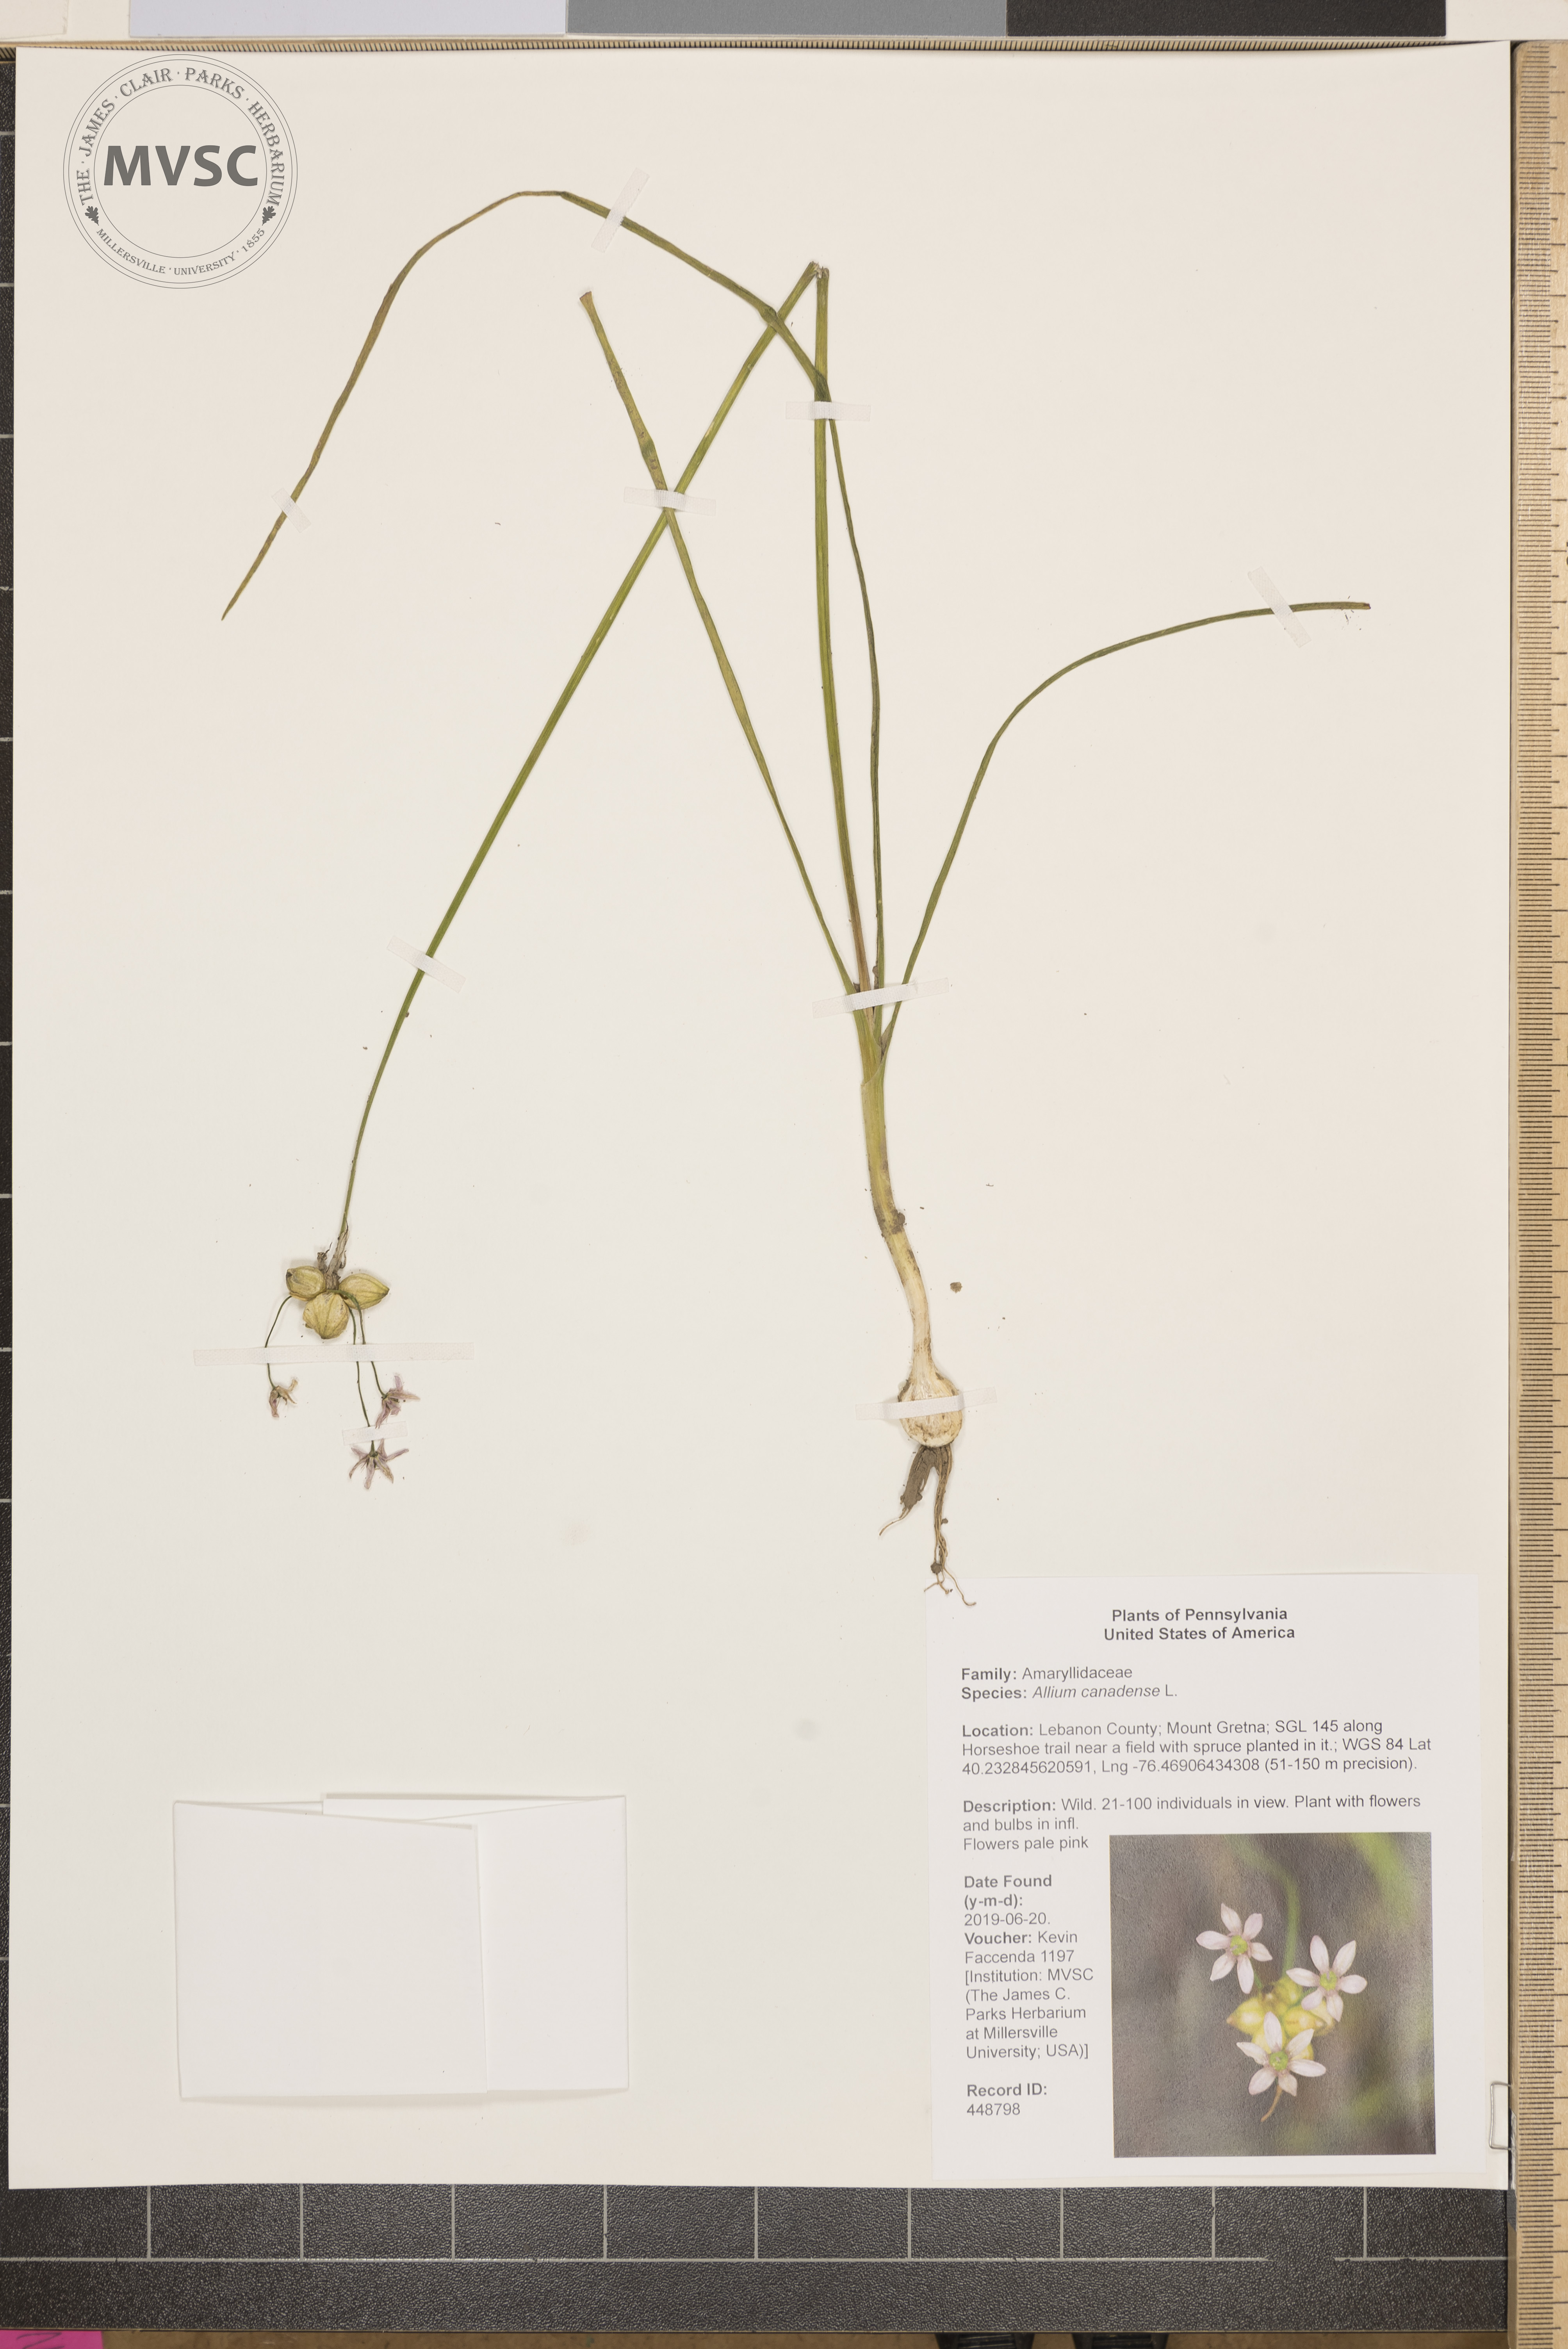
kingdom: Plantae
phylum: Tracheophyta
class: Liliopsida
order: Asparagales
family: Amaryllidaceae
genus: Allium
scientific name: Allium canadense
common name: Meadow garlic
